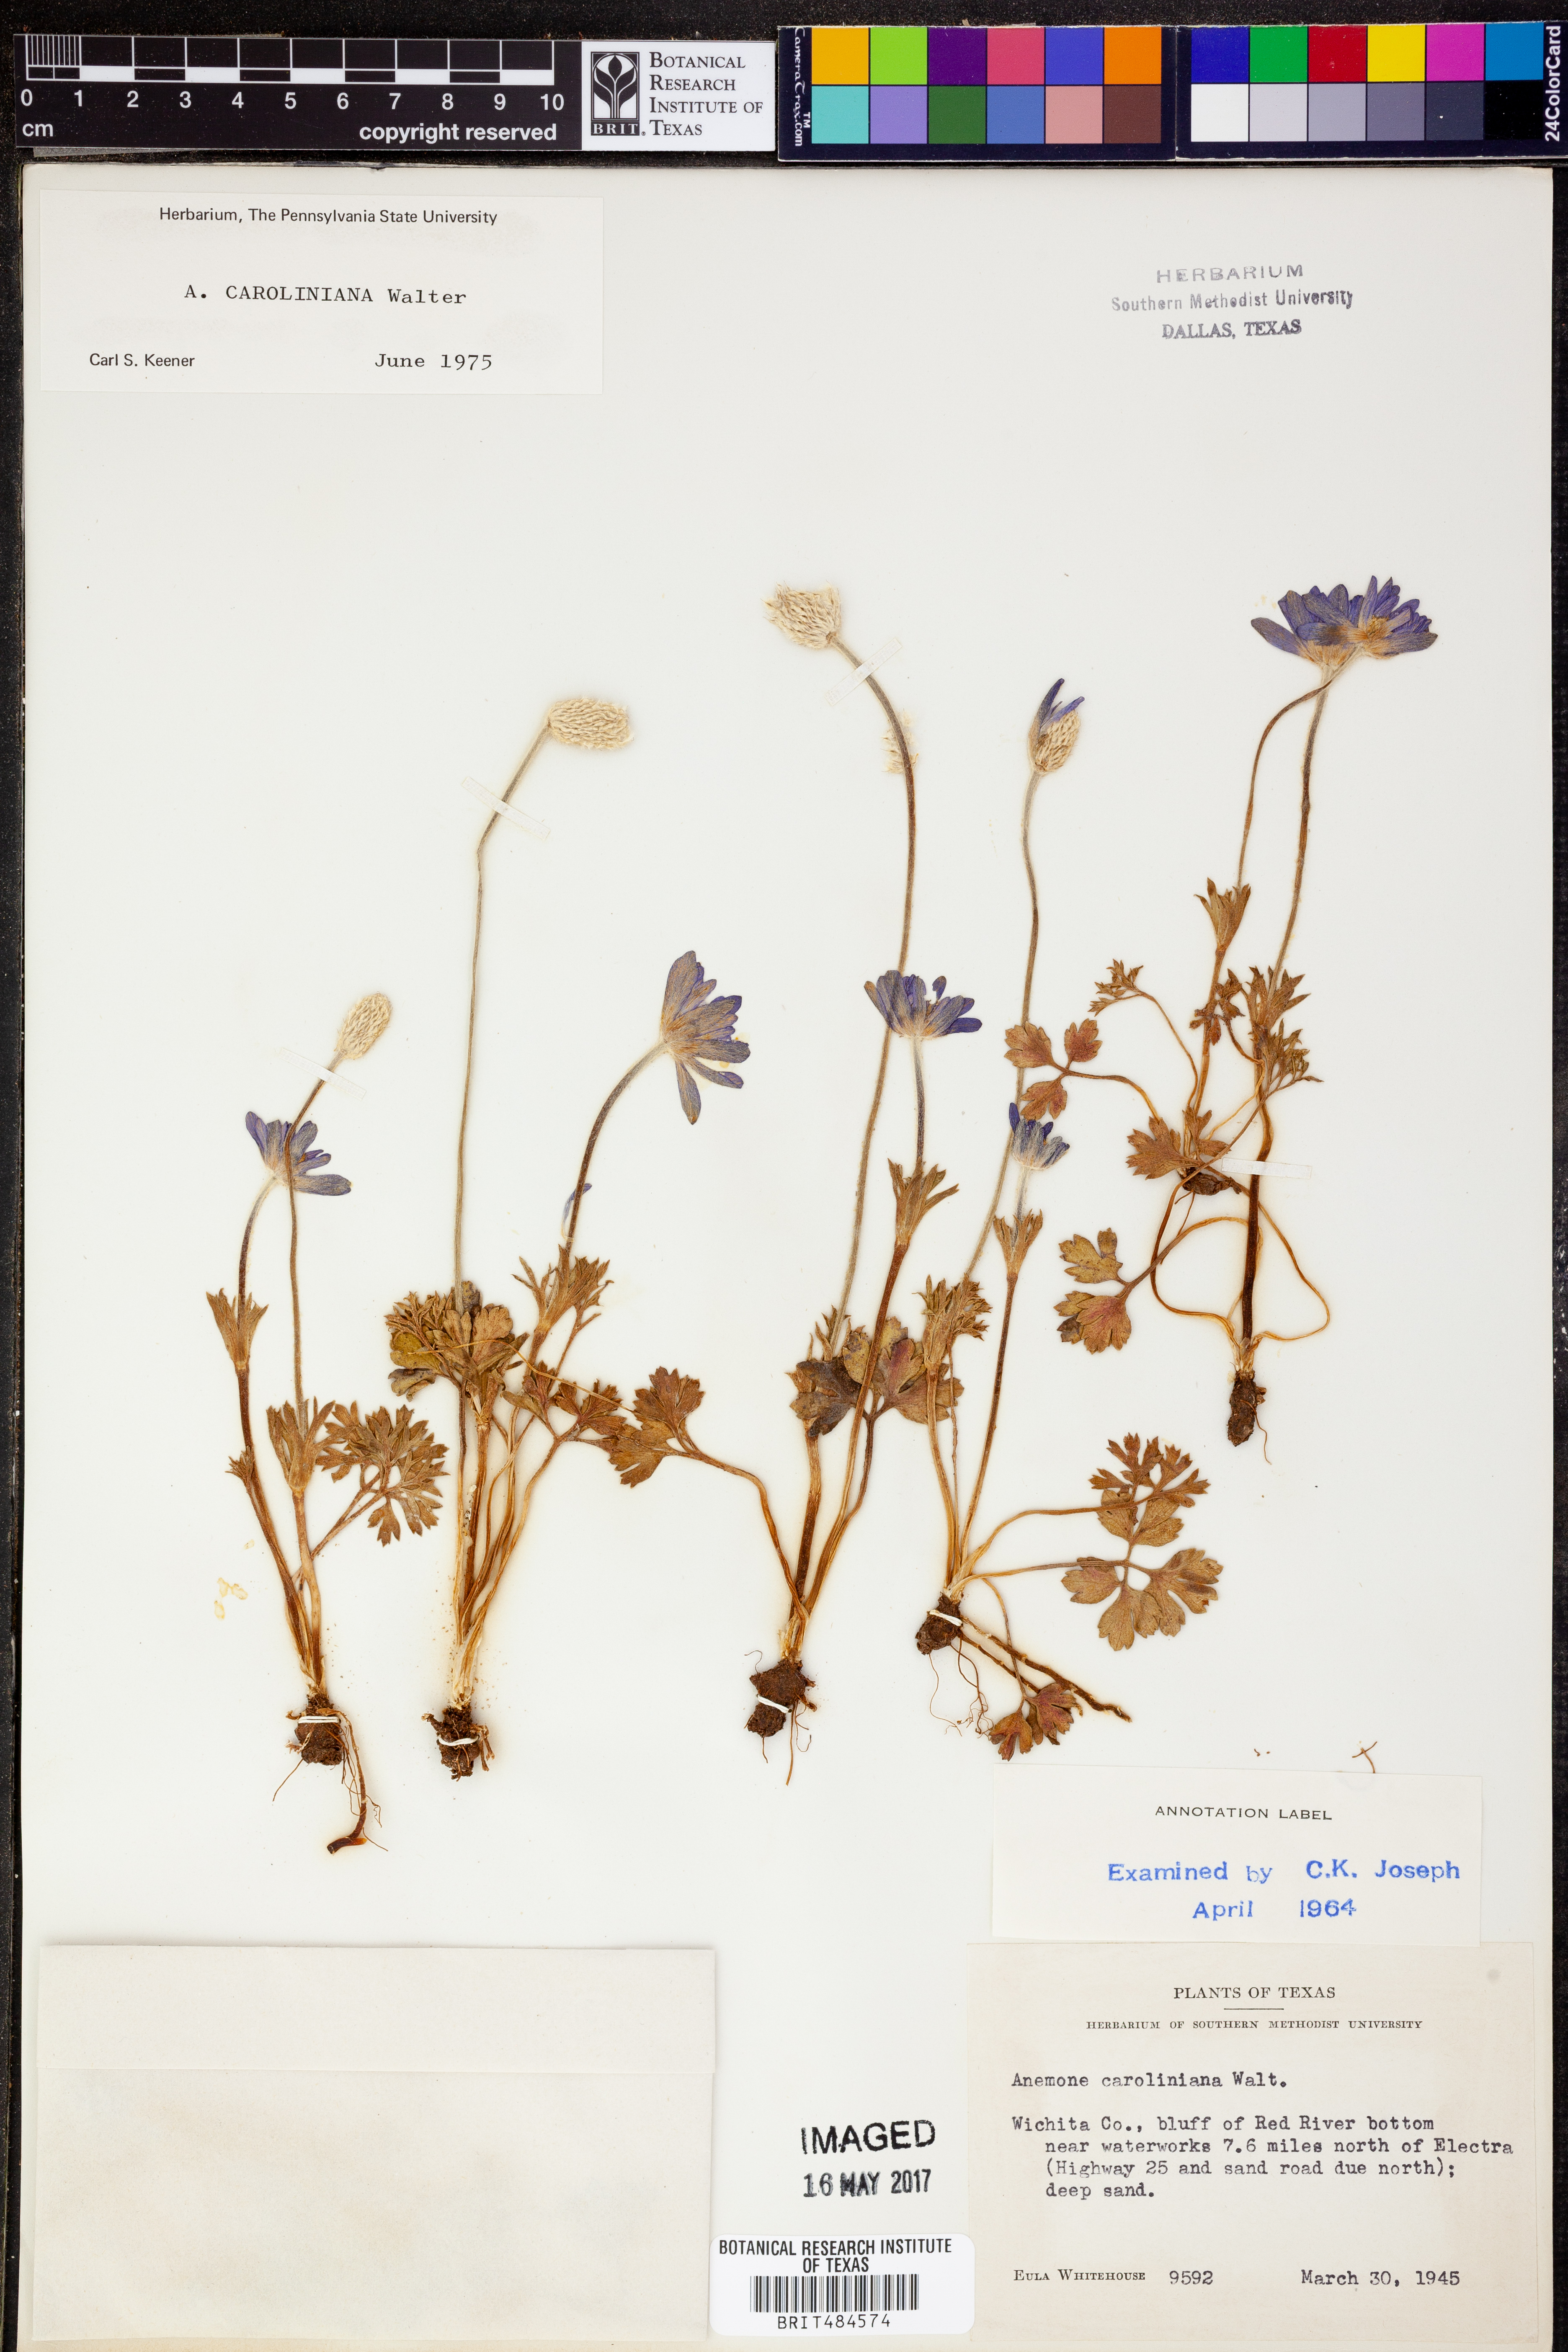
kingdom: Plantae
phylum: Tracheophyta
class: Magnoliopsida
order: Ranunculales
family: Ranunculaceae
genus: Anemone
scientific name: Anemone caroliniana
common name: Carolina anemone
